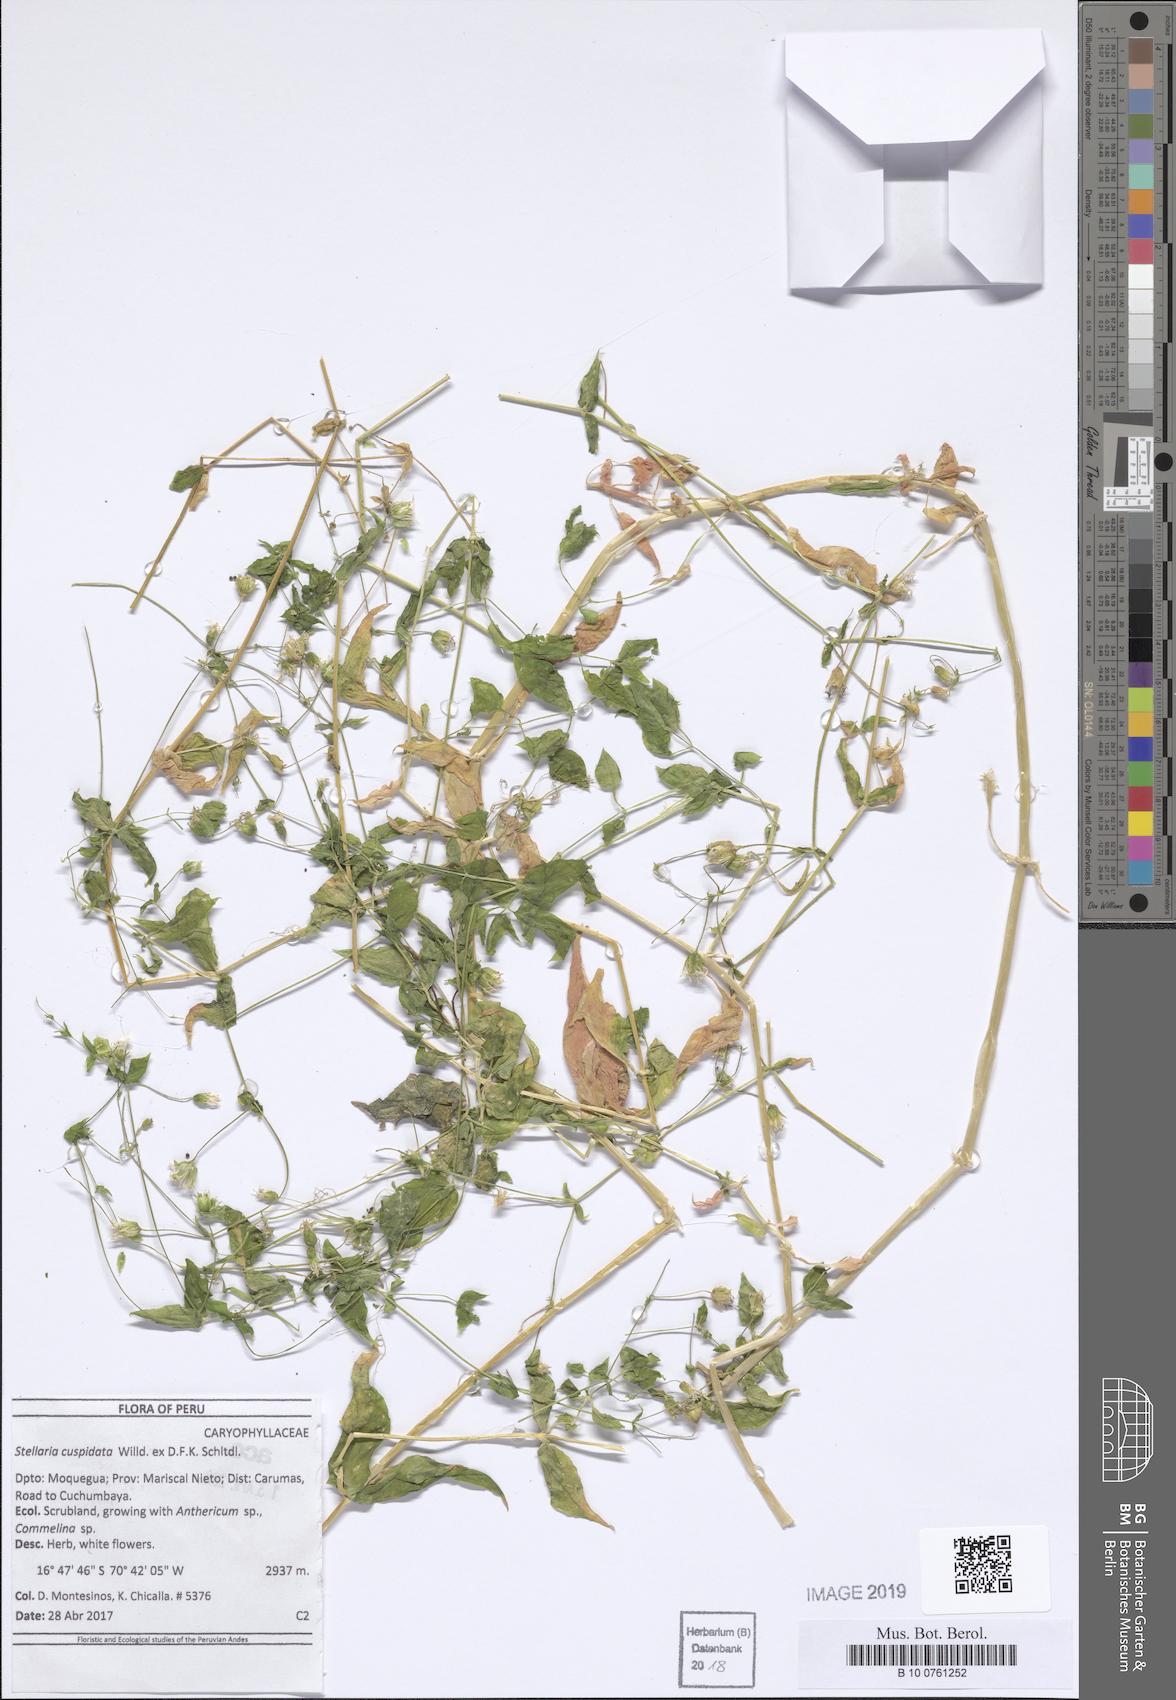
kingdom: Plantae
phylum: Tracheophyta
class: Magnoliopsida
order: Caryophyllales
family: Caryophyllaceae
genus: Stellaria
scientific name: Stellaria cuspidata
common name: Mexican chickweed
